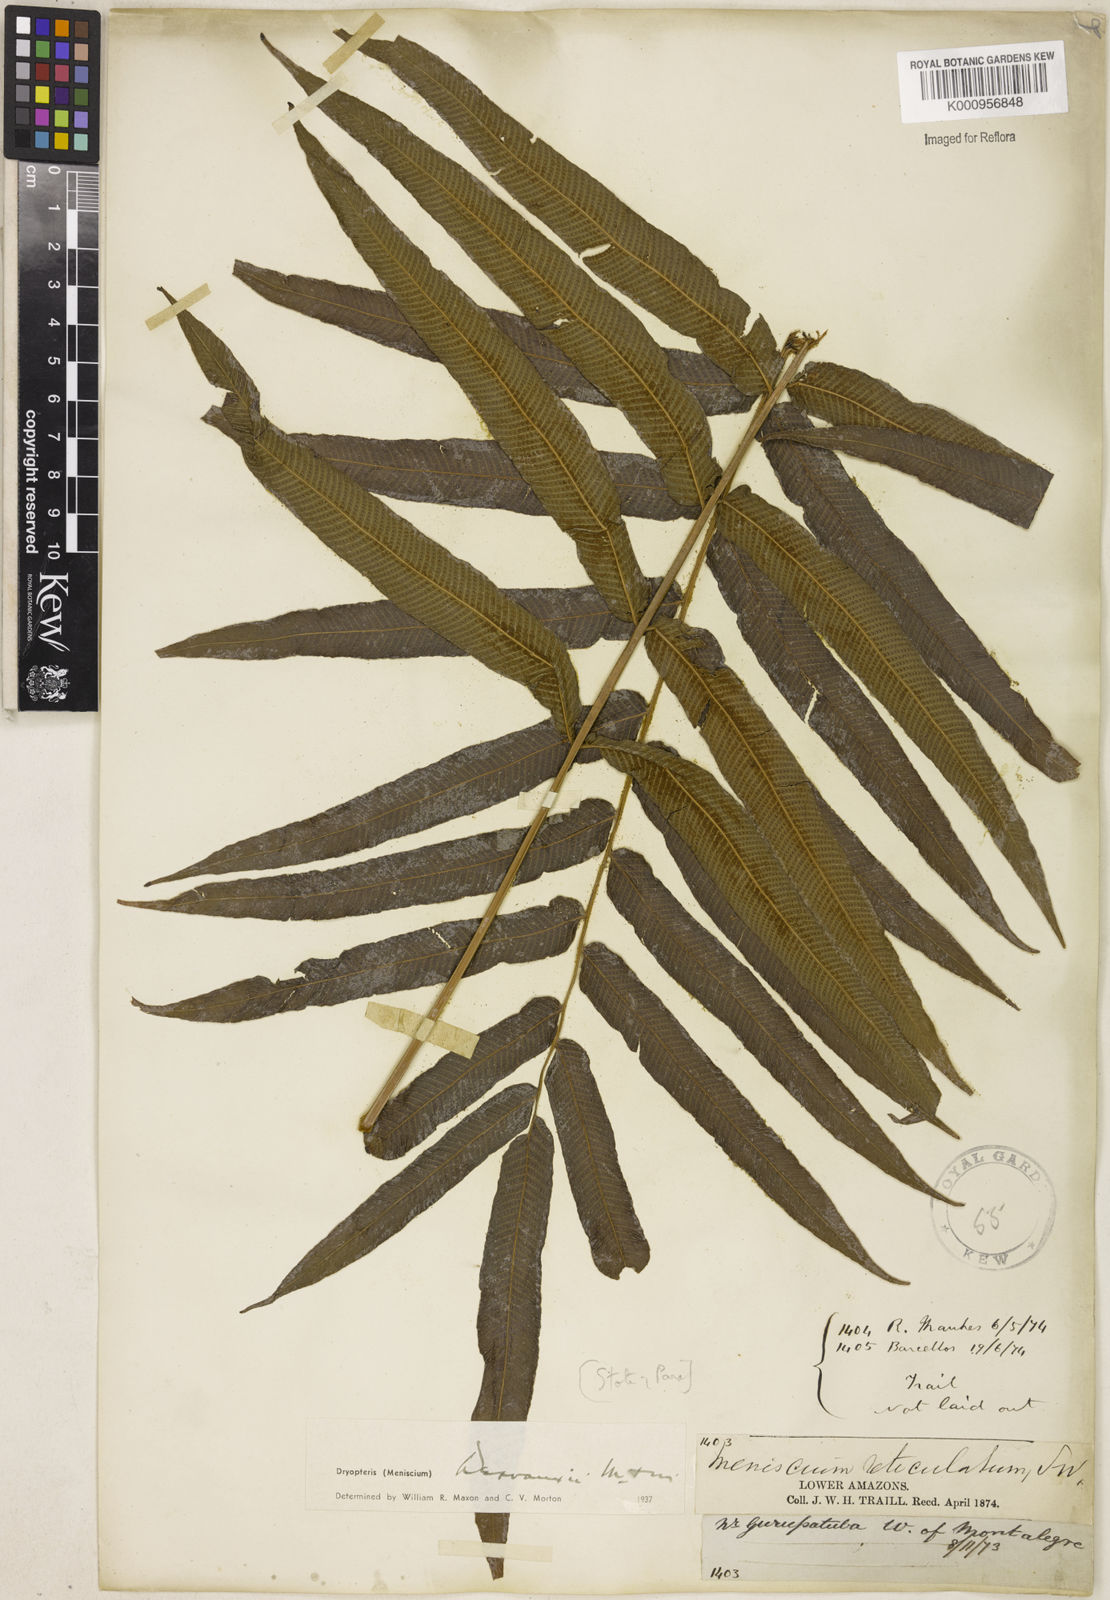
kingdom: Plantae
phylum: Tracheophyta
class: Polypodiopsida
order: Polypodiales
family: Thelypteridaceae
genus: Meniscium
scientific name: Meniscium arborescens
